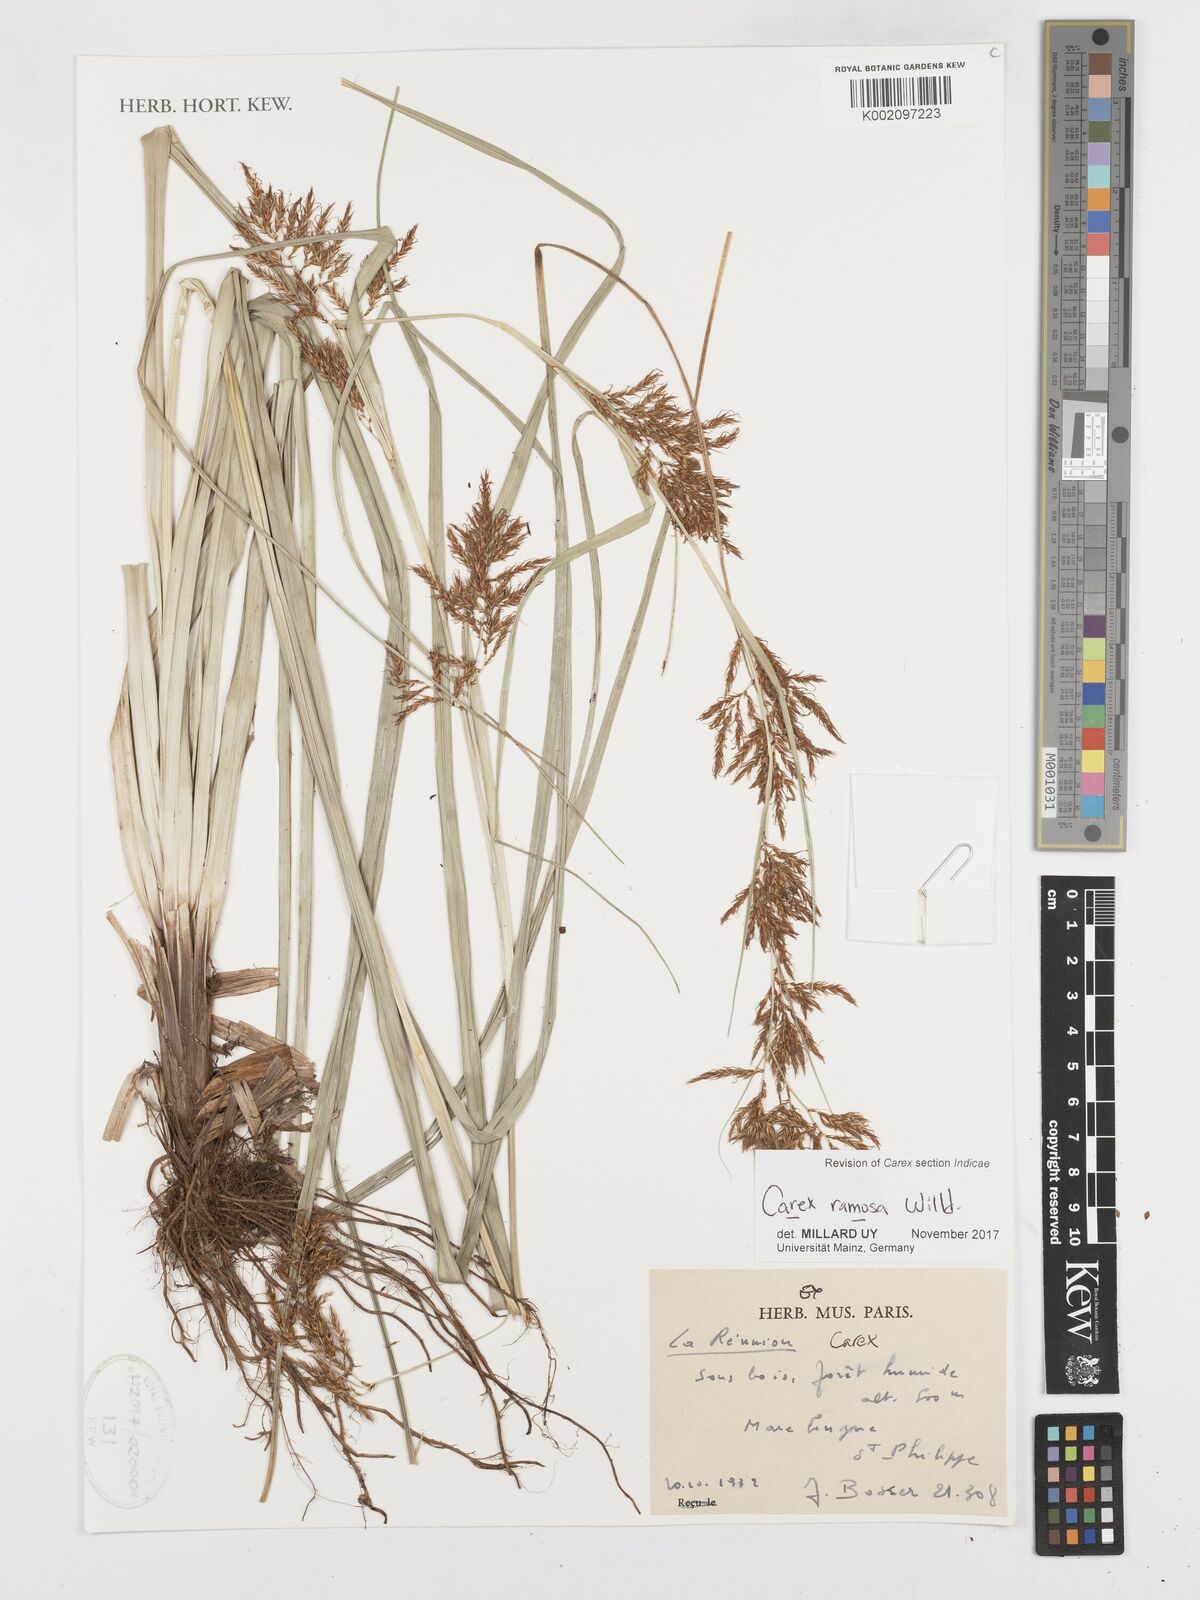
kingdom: Plantae
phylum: Tracheophyta
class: Liliopsida
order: Poales
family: Cyperaceae
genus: Carex
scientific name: Carex ramosa
